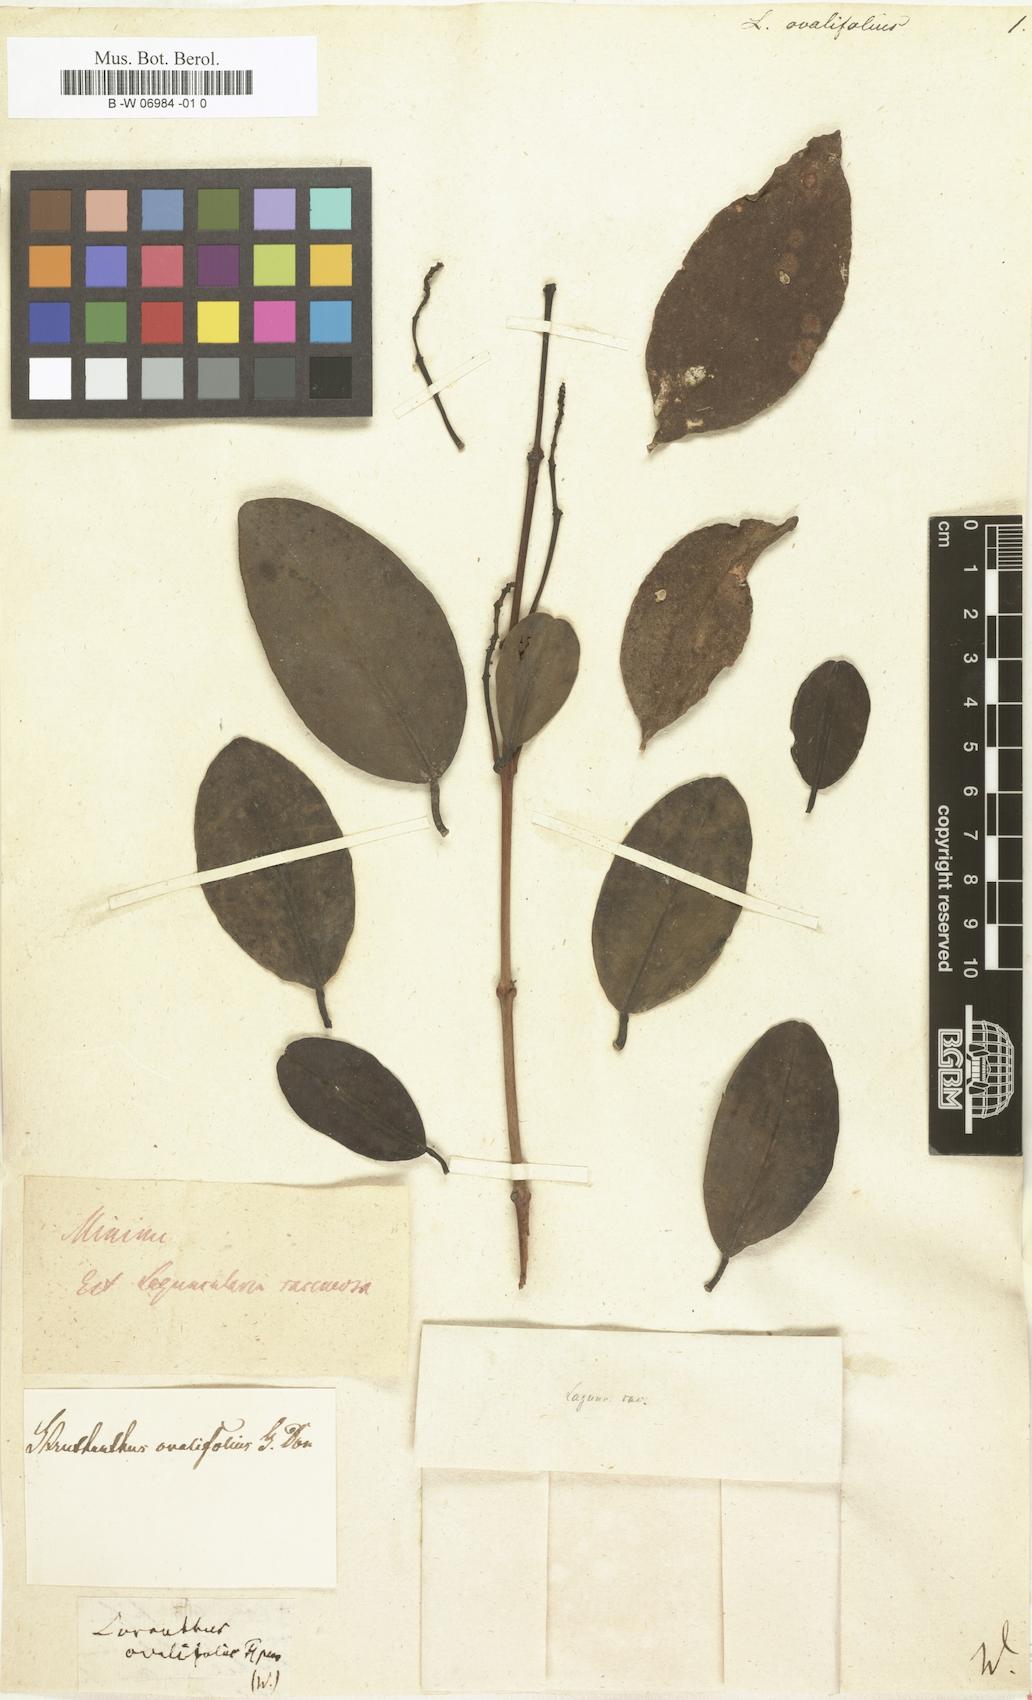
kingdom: Plantae
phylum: Tracheophyta
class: Magnoliopsida
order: Santalales
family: Loranthaceae
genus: Oryctanthus
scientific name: Oryctanthus ovalifolius
